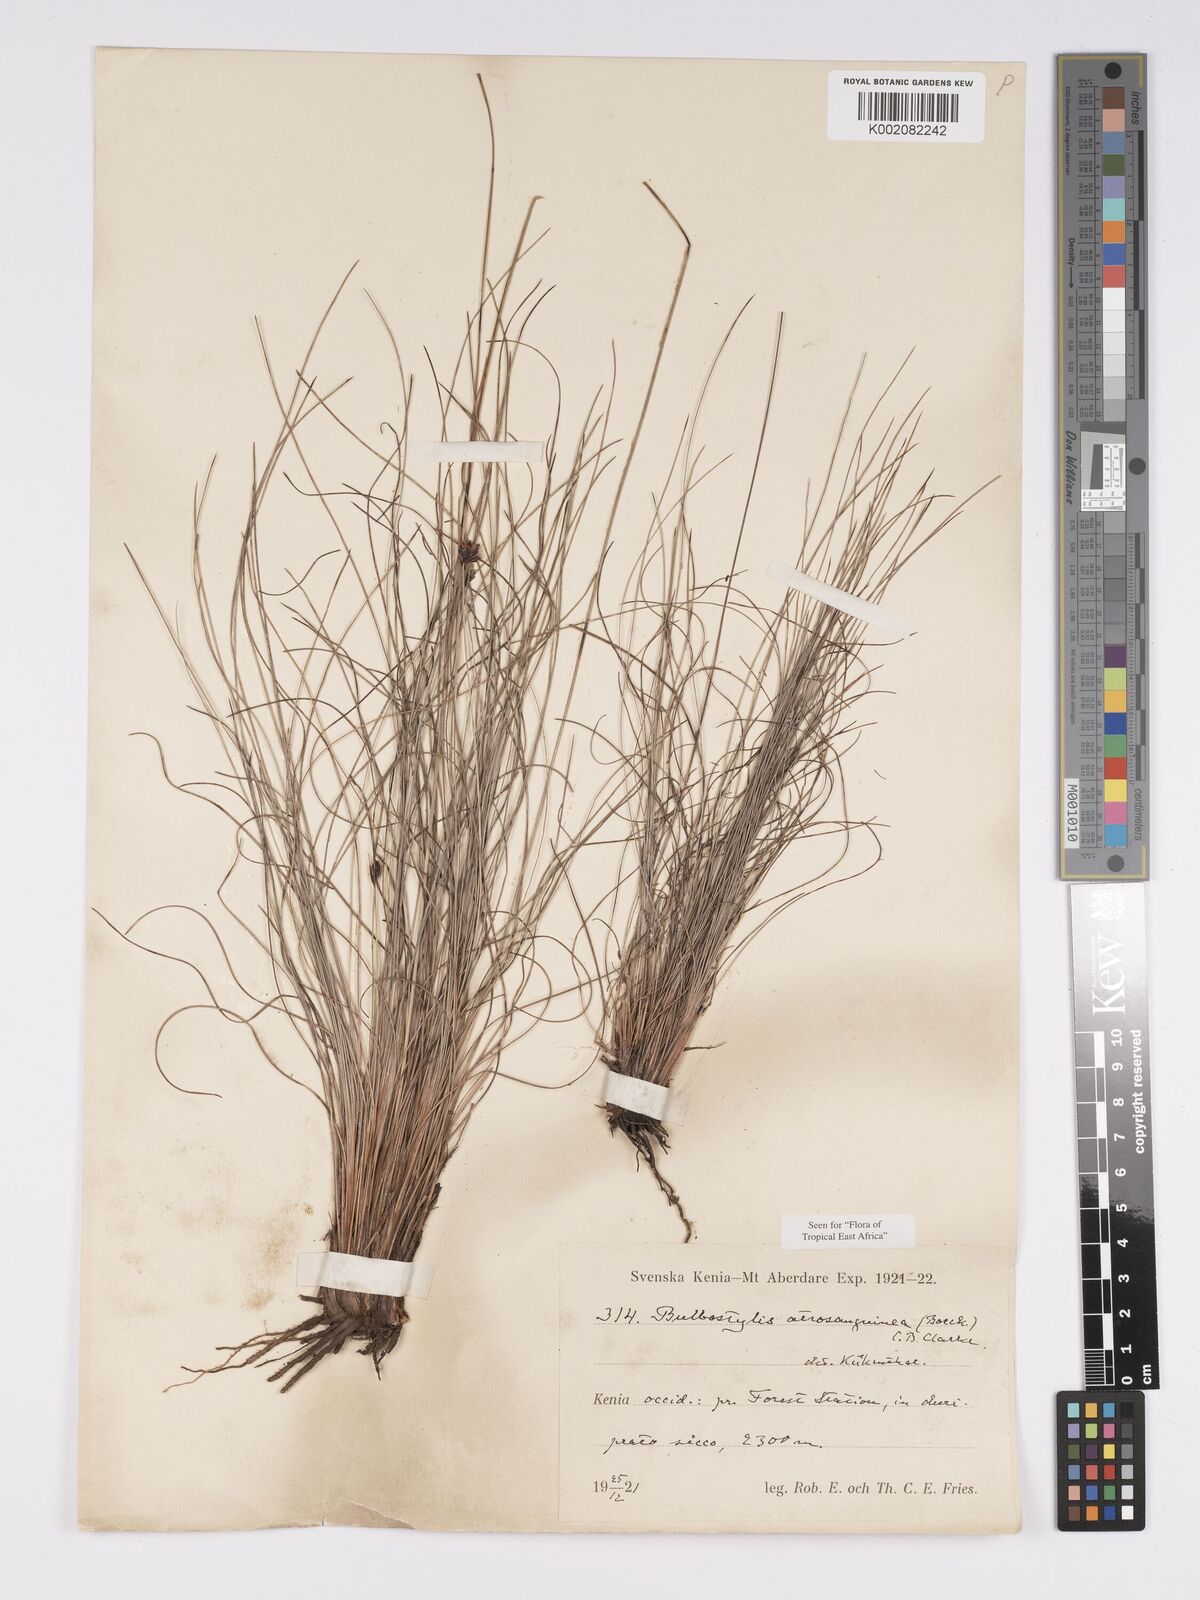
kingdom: Plantae
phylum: Tracheophyta
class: Liliopsida
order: Poales
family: Cyperaceae
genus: Bulbostylis
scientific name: Bulbostylis atrosanguinea
